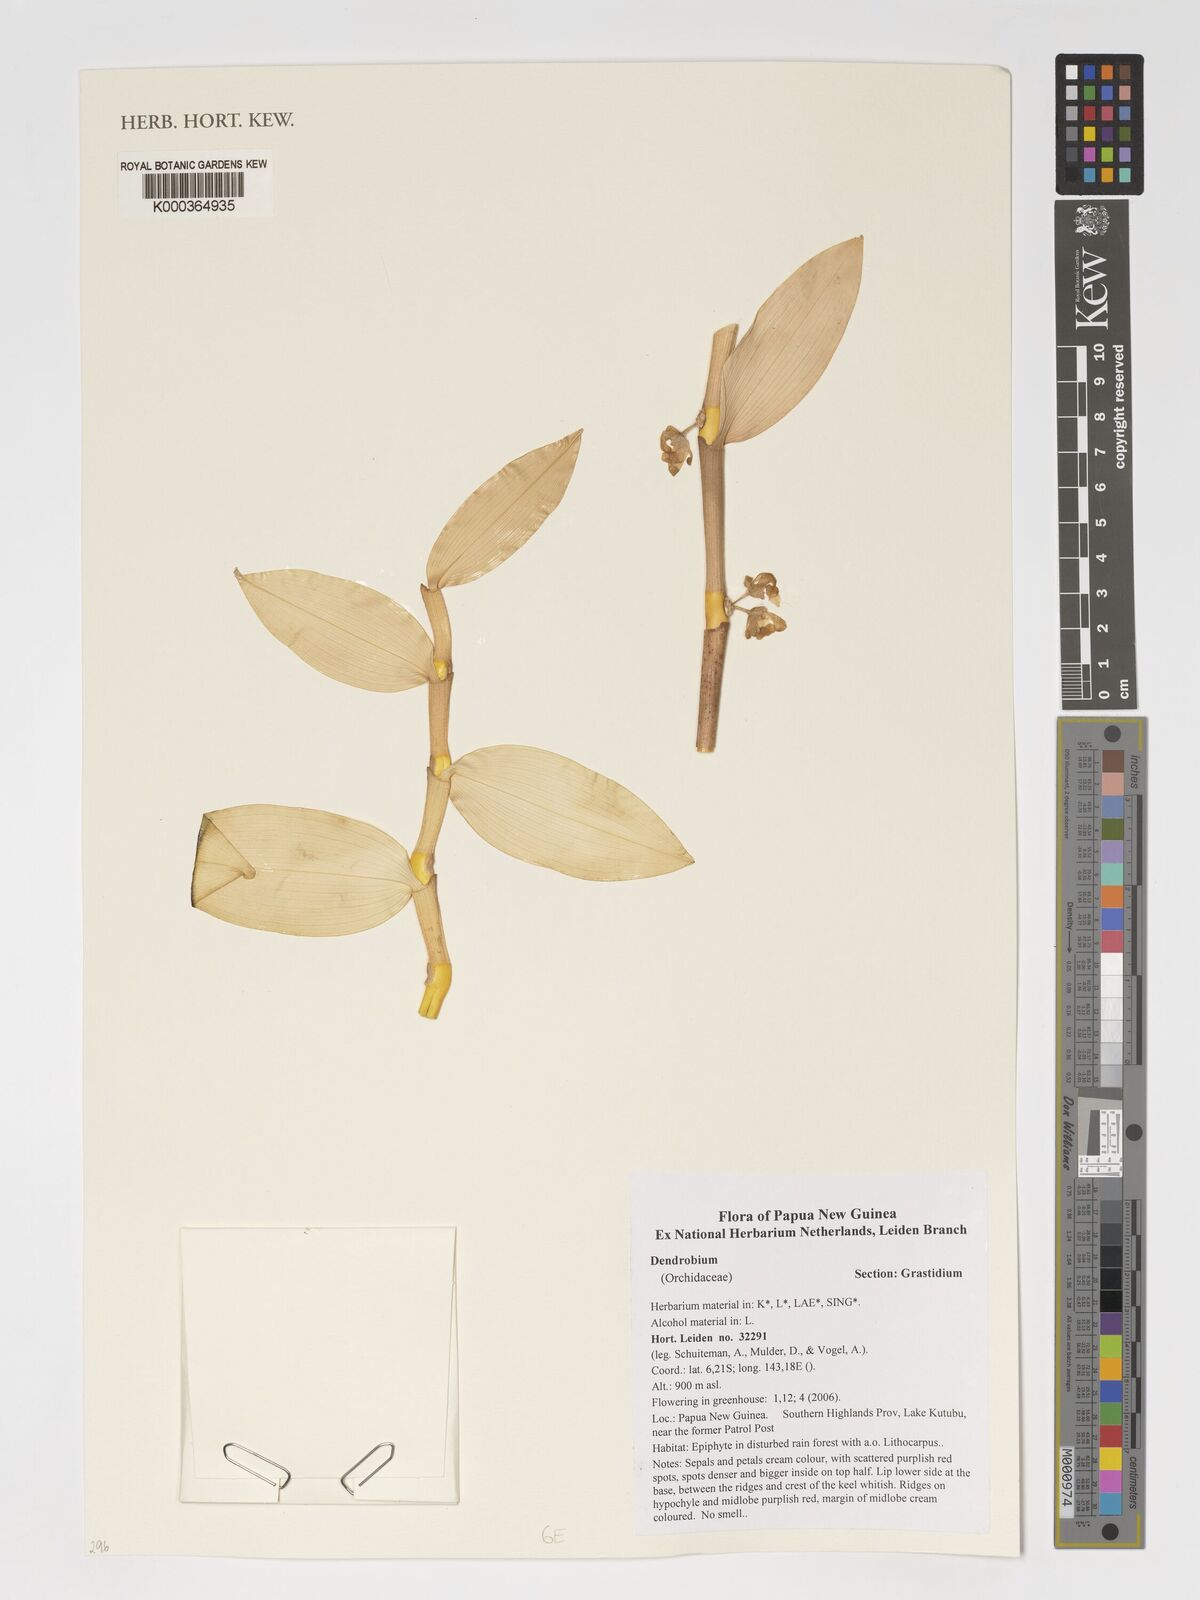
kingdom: Plantae
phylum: Tracheophyta
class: Liliopsida
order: Asparagales
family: Orchidaceae
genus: Dendrobium
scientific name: Dendrobium
